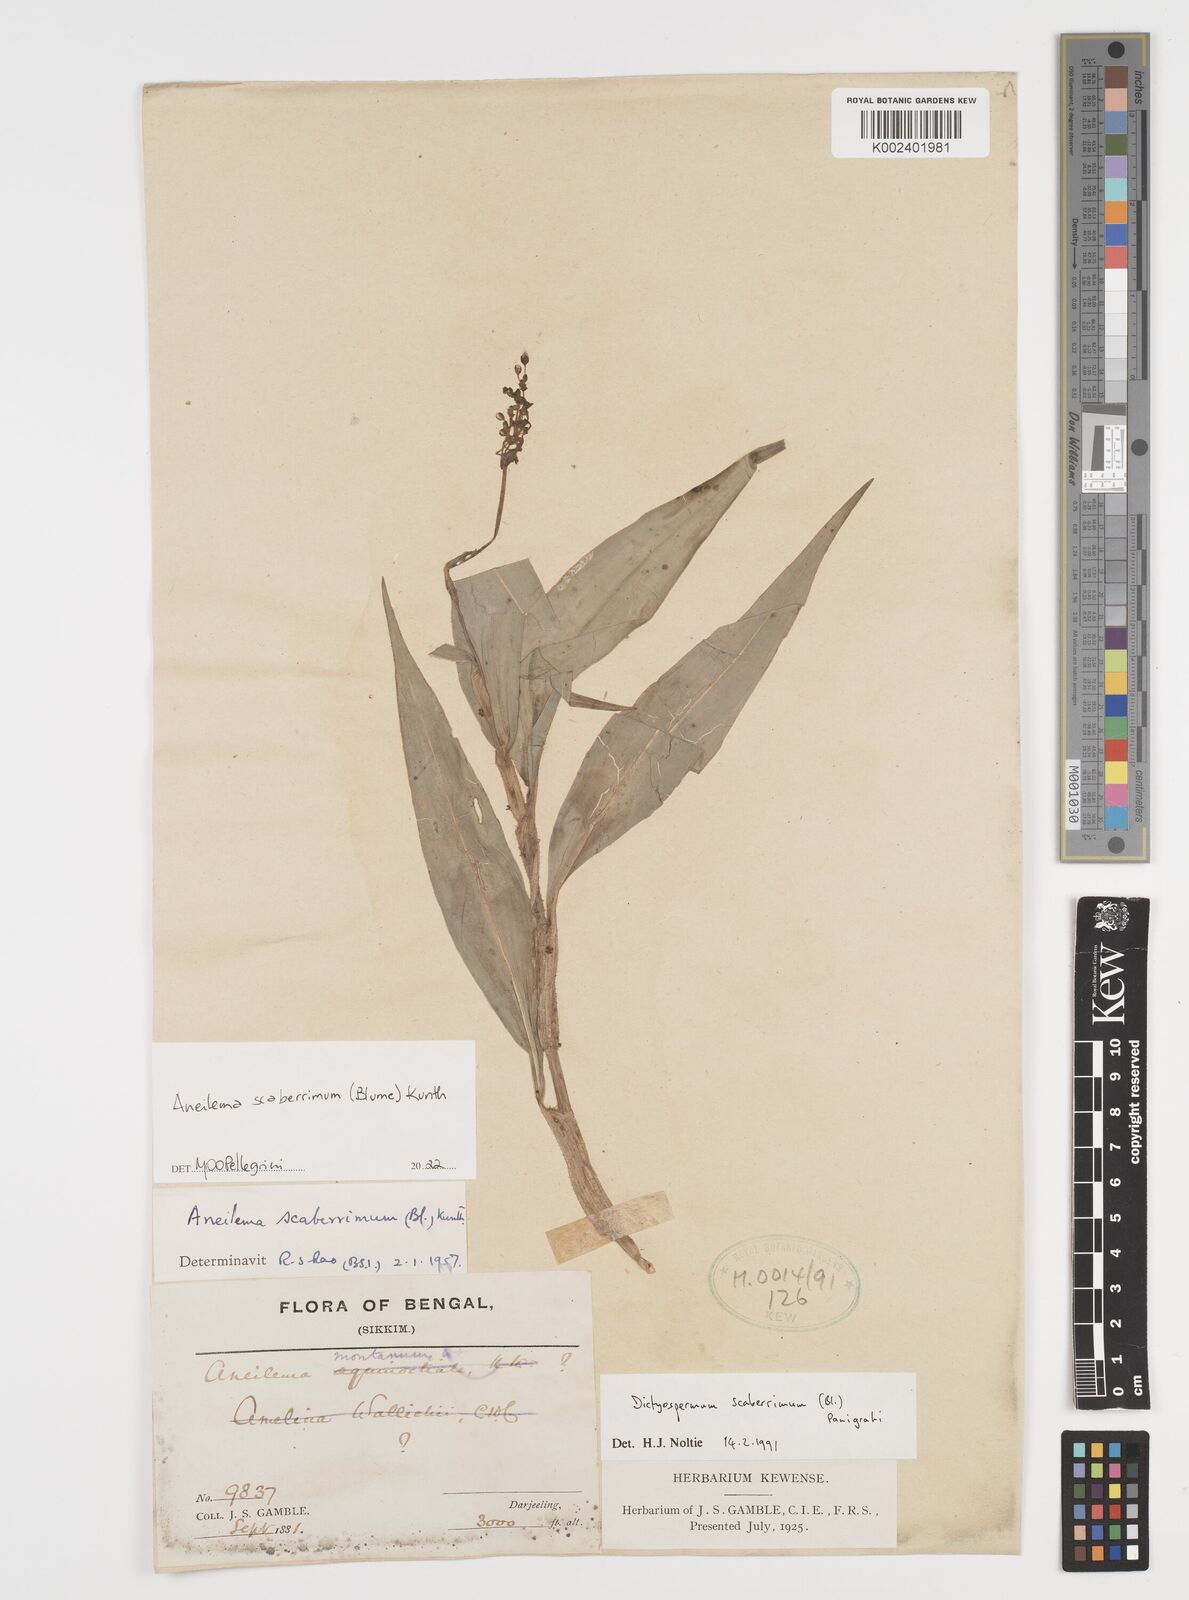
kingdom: Plantae
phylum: Tracheophyta
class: Liliopsida
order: Commelinales
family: Commelinaceae
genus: Rhopalephora
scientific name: Rhopalephora scaberrima
